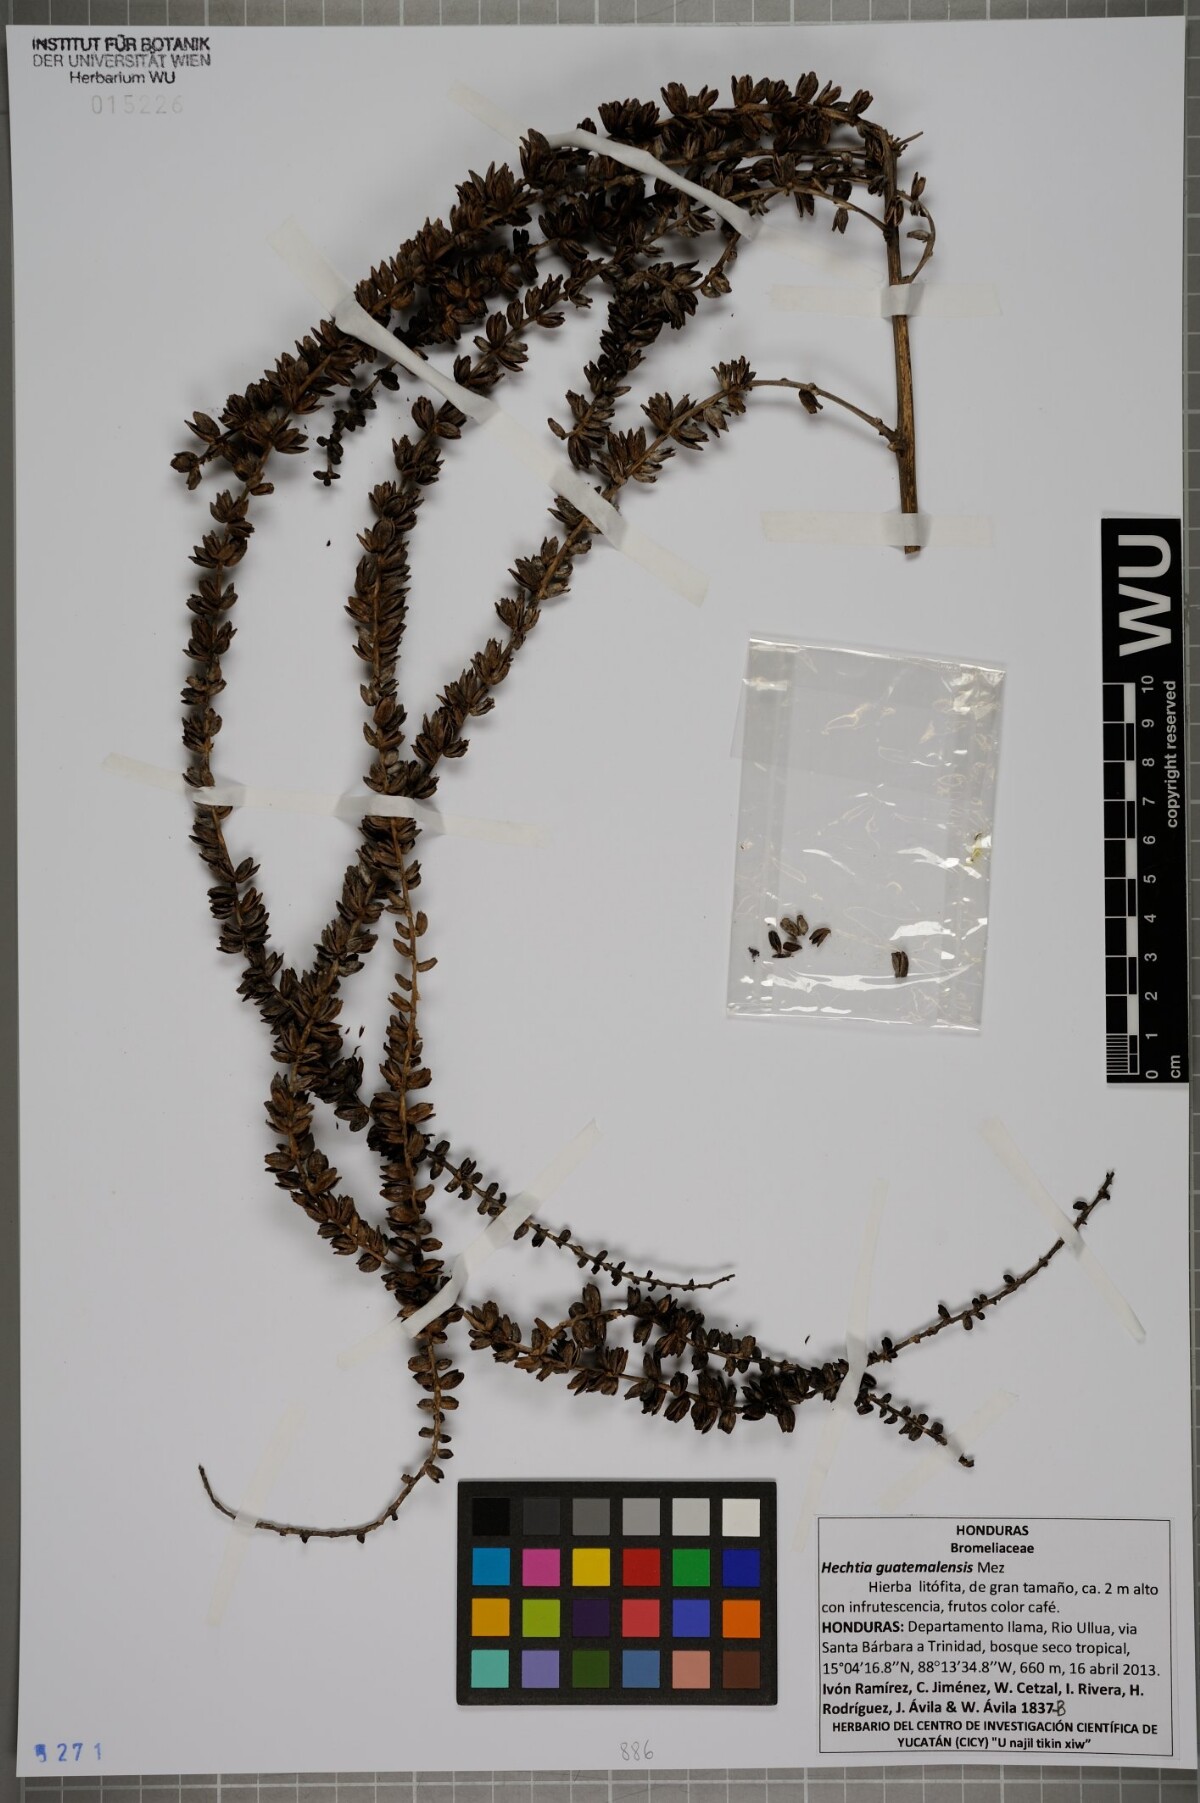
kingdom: Plantae
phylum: Tracheophyta
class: Liliopsida
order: Poales
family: Bromeliaceae
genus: Hechtia
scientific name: Hechtia guatemalensis
